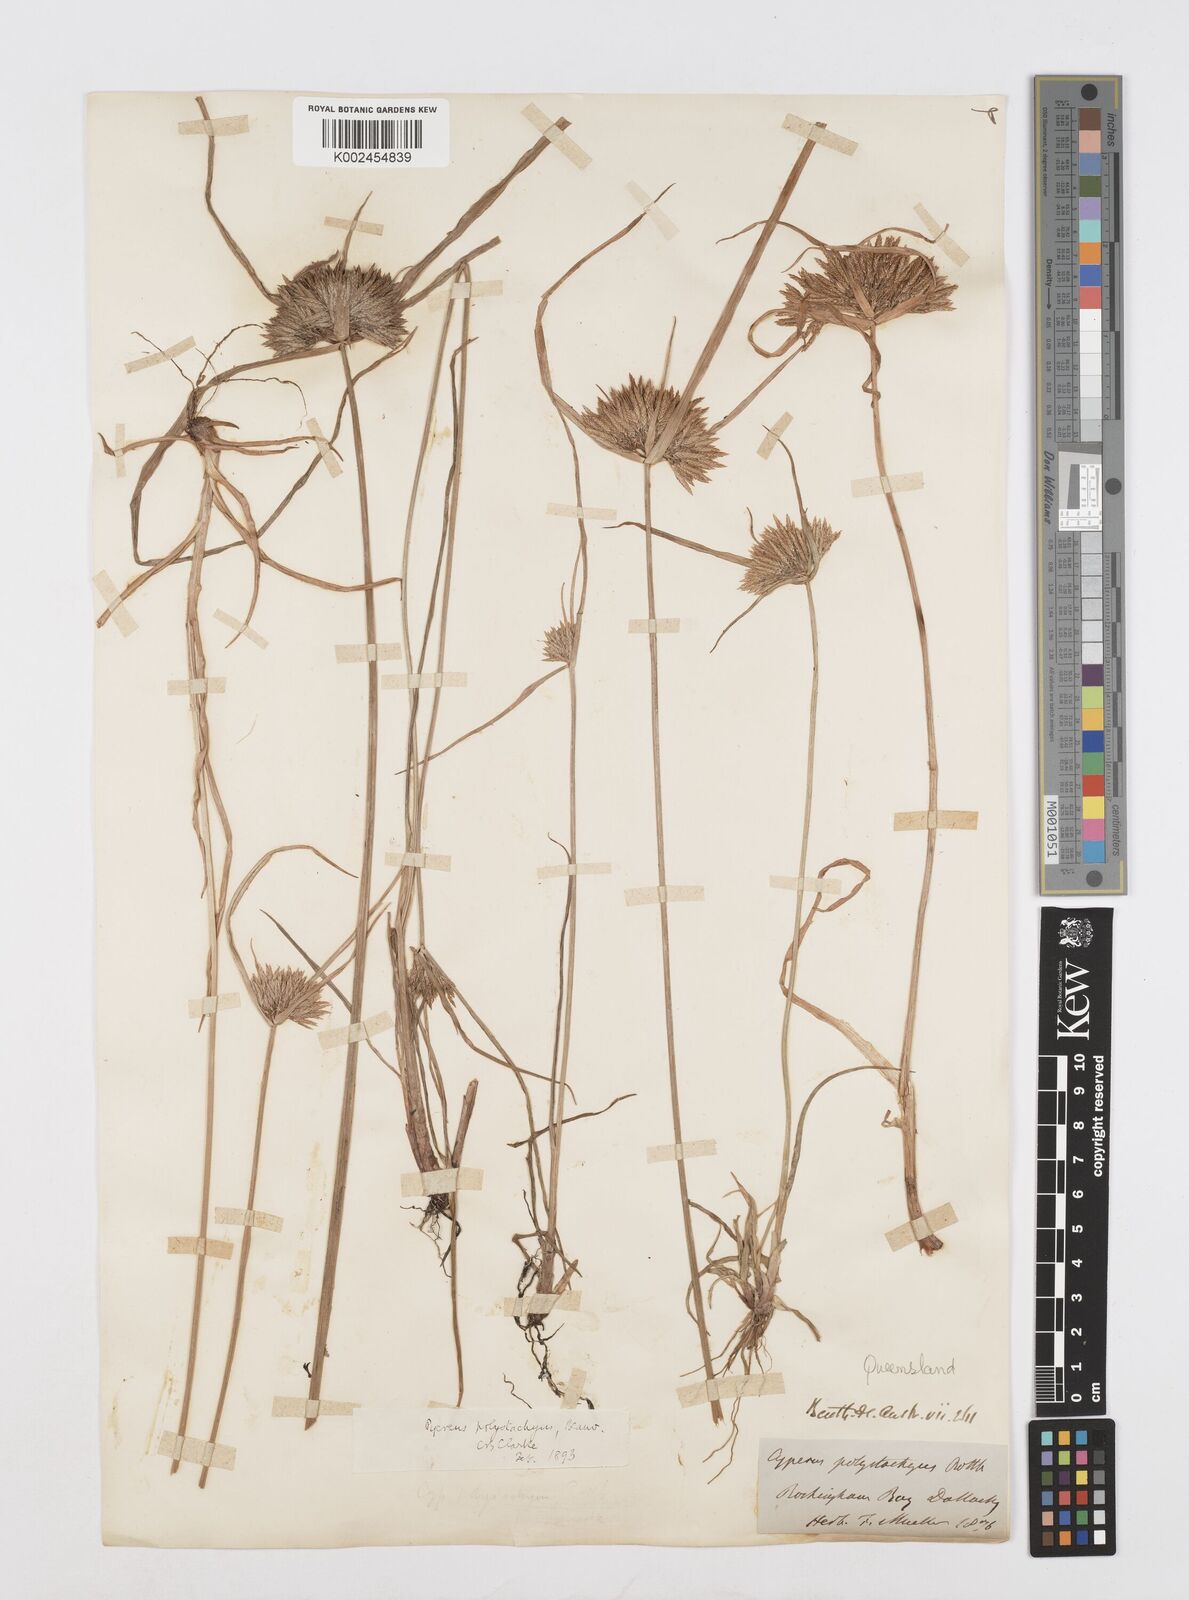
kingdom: Plantae
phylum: Tracheophyta
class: Liliopsida
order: Poales
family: Cyperaceae
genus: Cyperus
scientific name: Cyperus polystachyos
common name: Bunchy flat sedge
